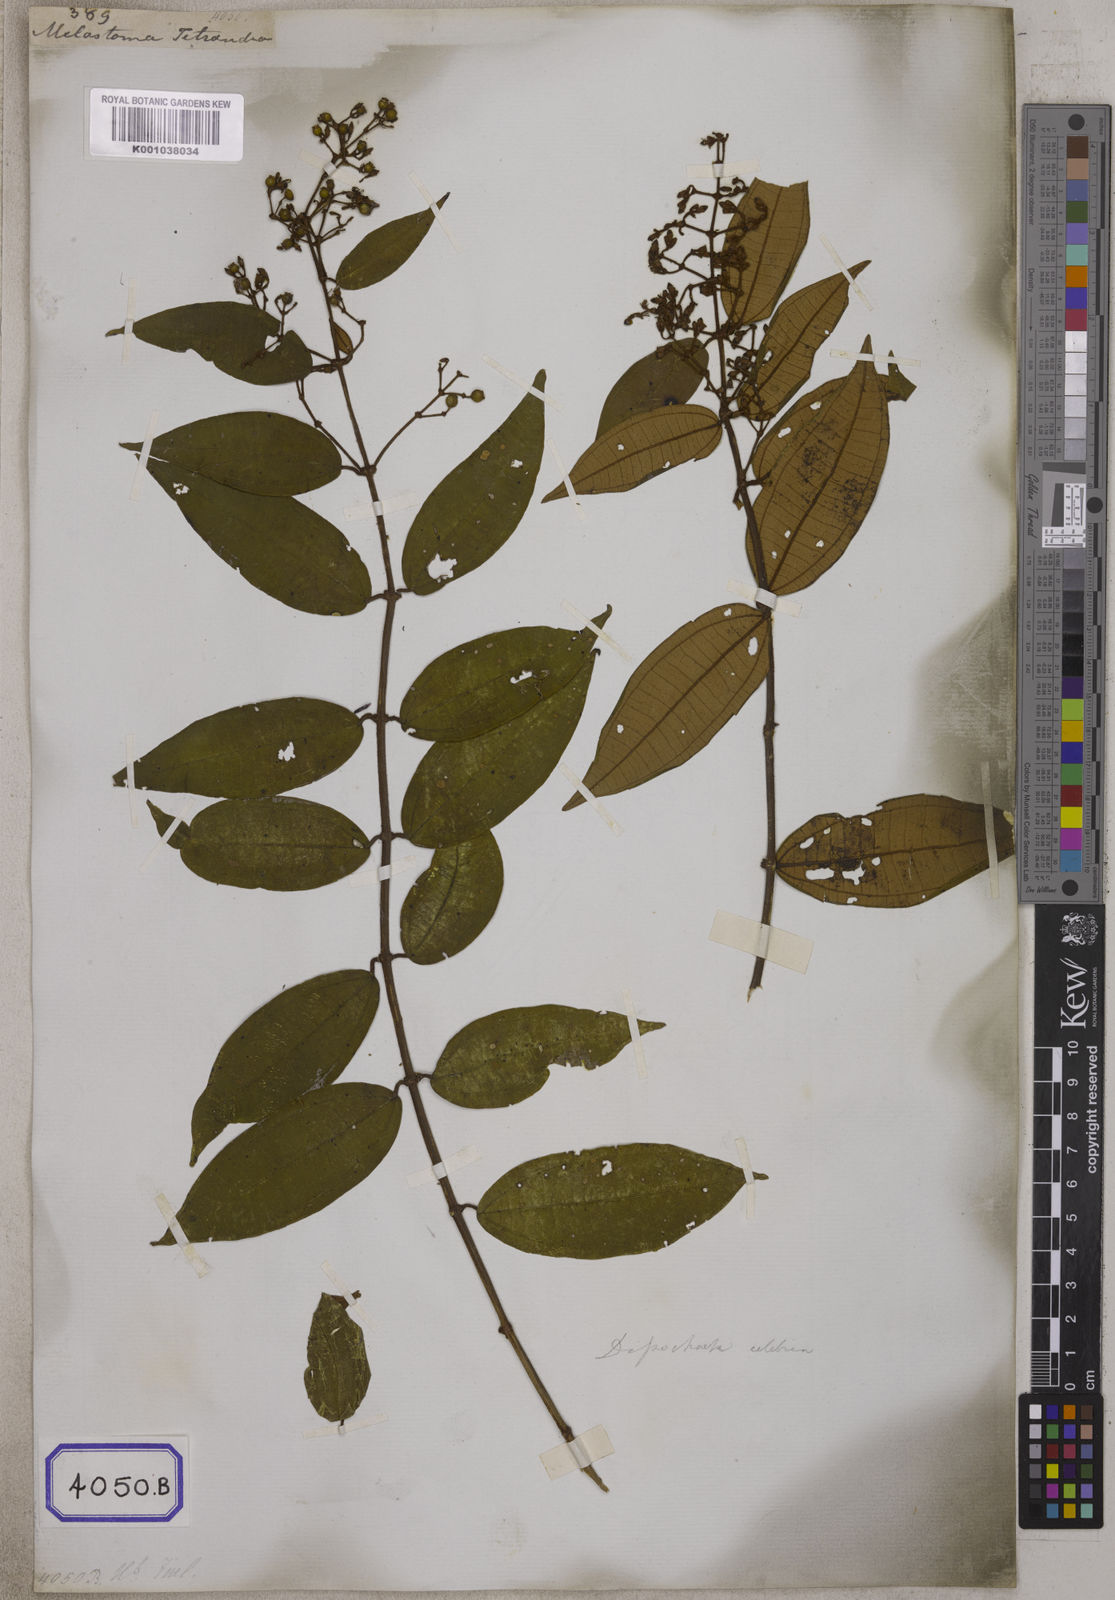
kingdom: Plantae
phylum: Tracheophyta
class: Magnoliopsida
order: Myrtales
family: Melastomataceae
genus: Melastoma
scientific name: Melastoma
